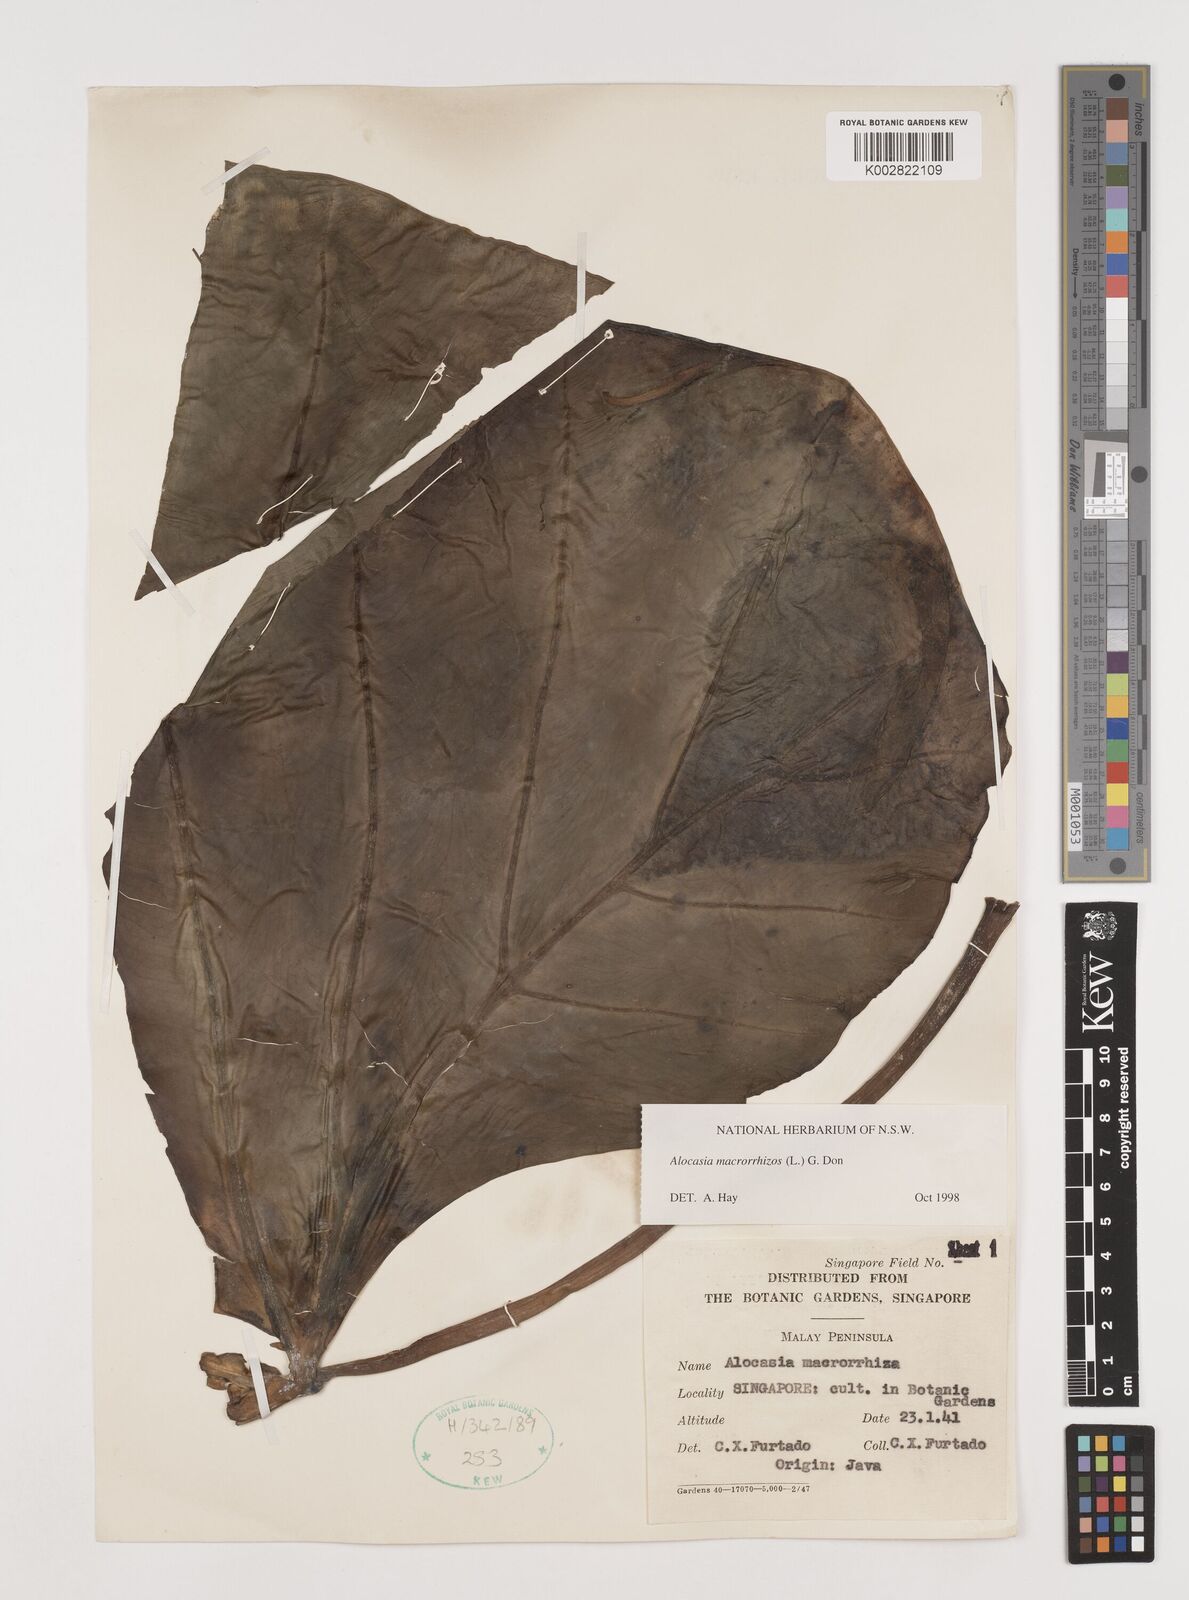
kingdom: Plantae
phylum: Tracheophyta
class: Liliopsida
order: Alismatales
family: Araceae
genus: Alocasia
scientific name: Alocasia macrorrhizos
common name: Giant taro
